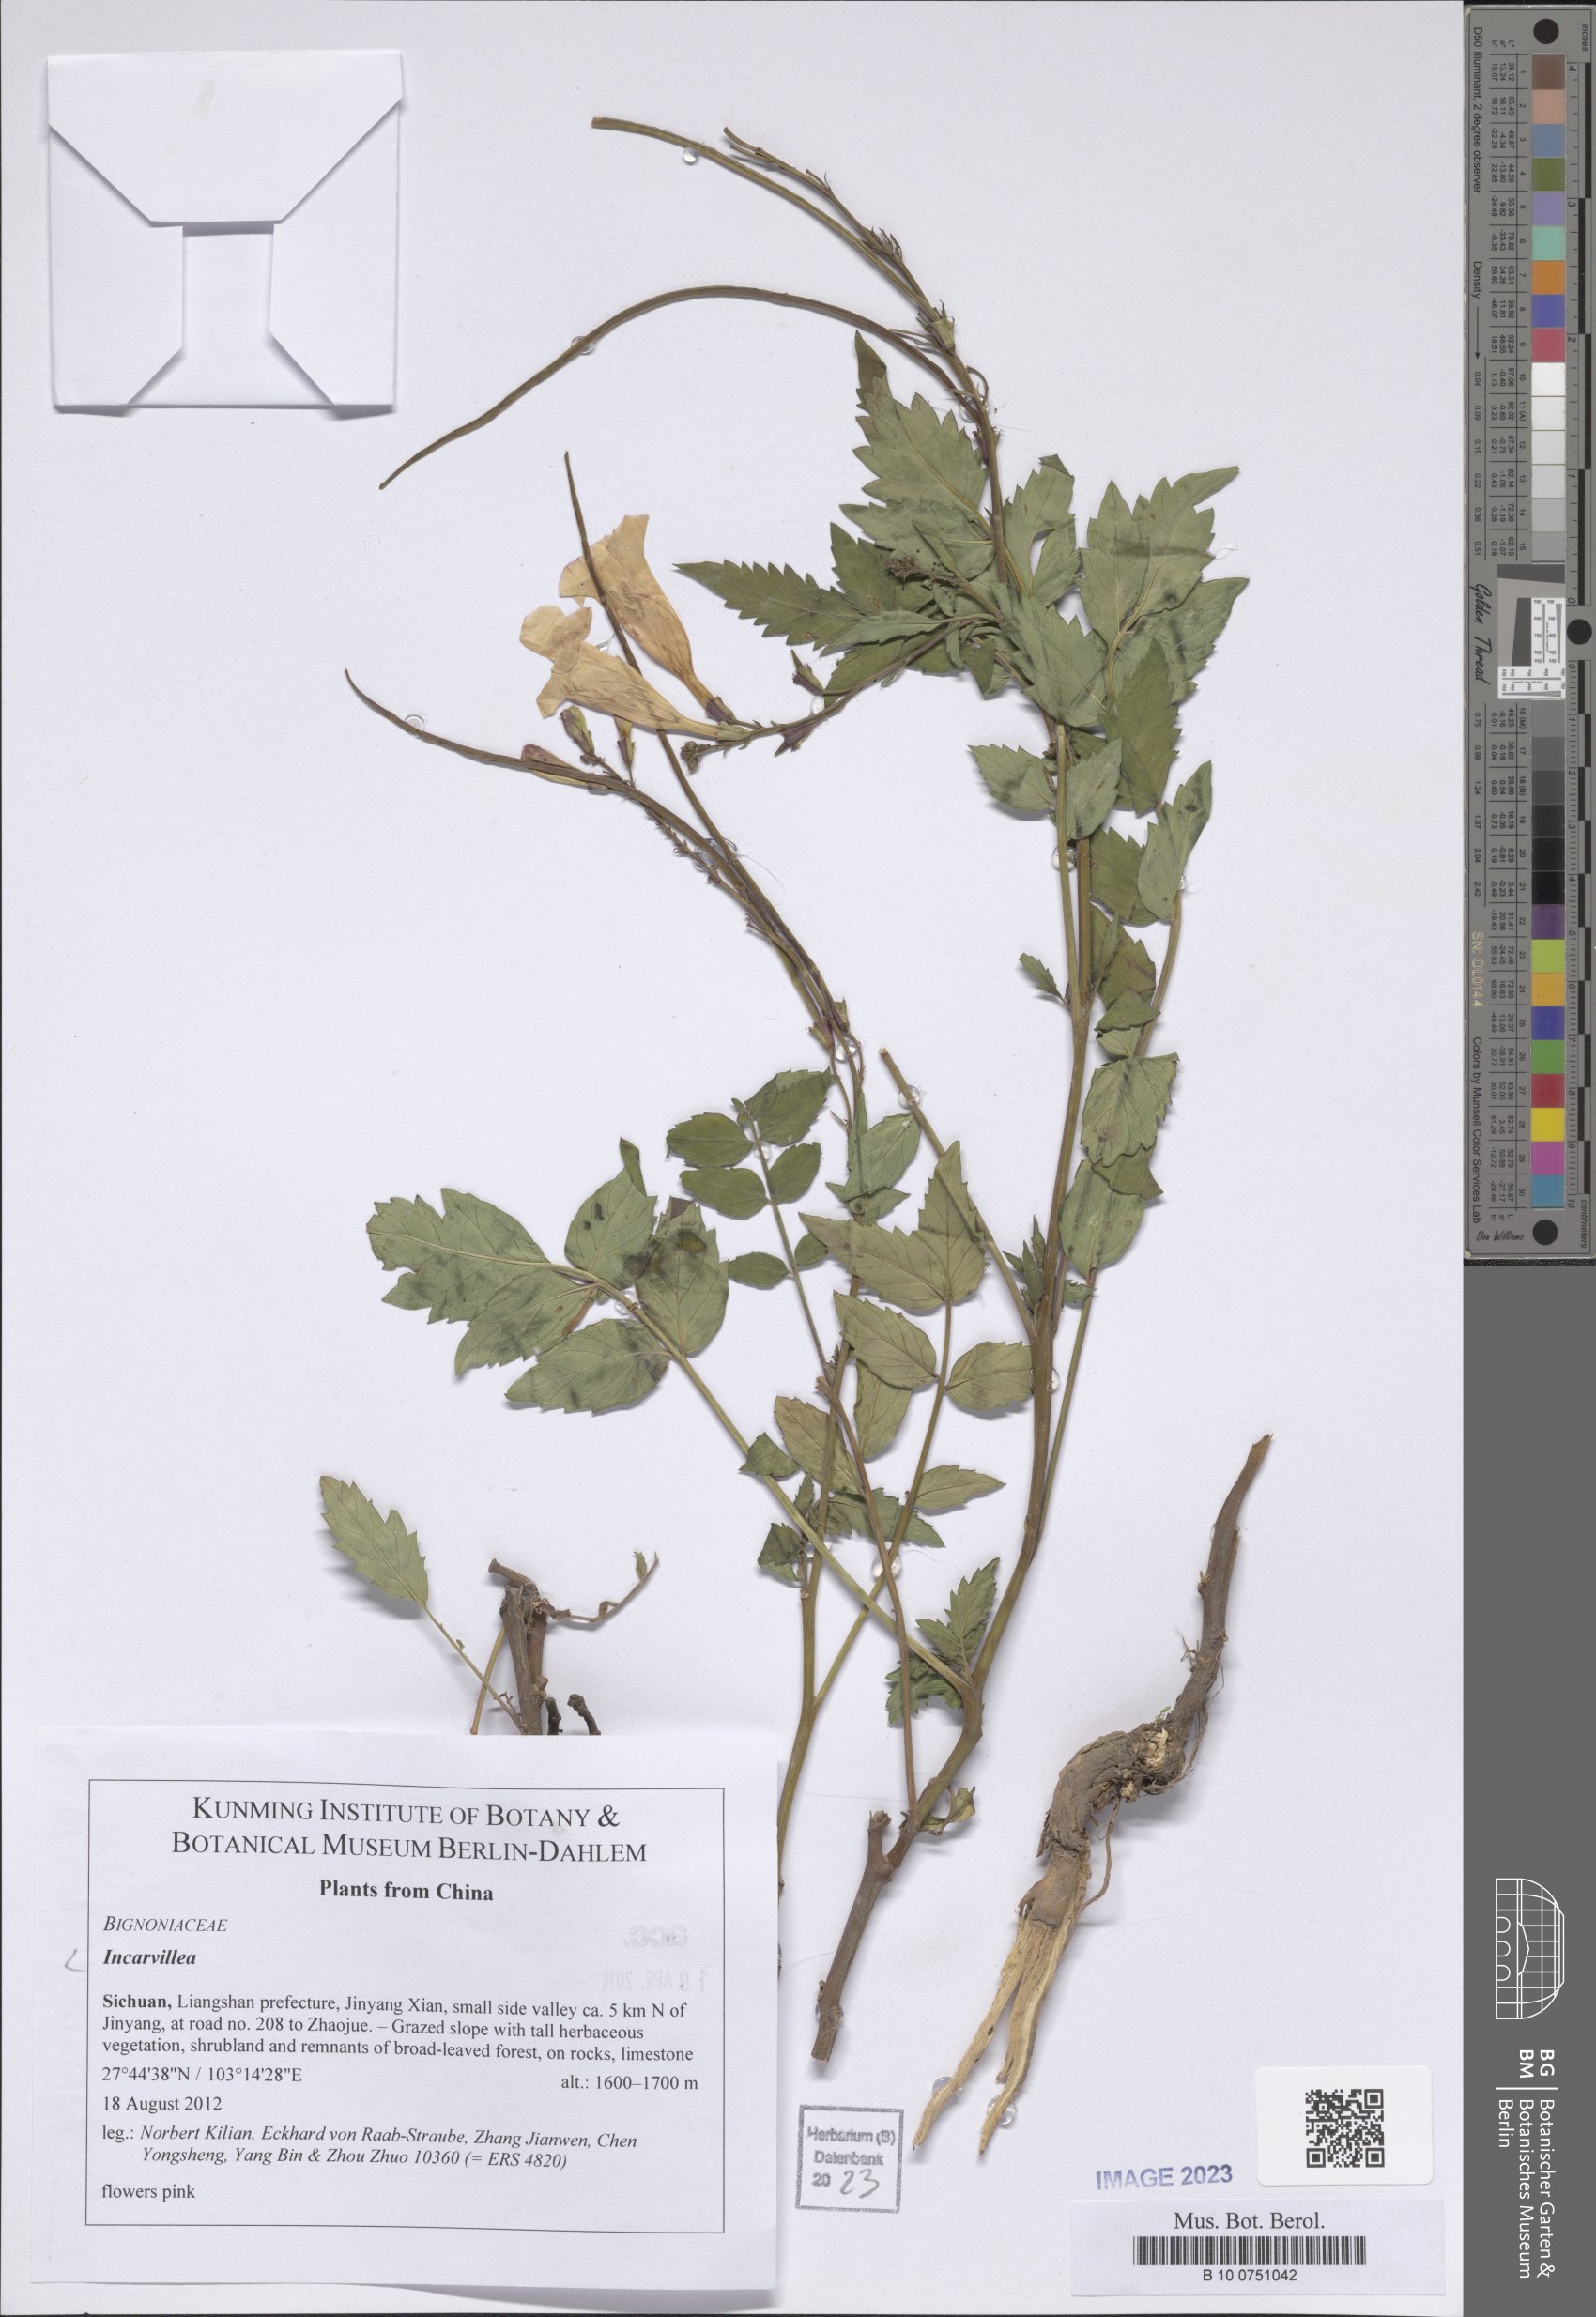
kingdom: Plantae
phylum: Tracheophyta
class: Magnoliopsida
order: Lamiales
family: Bignoniaceae
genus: Incarvillea
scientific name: Incarvillea
